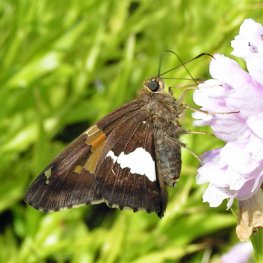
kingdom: Animalia
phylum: Arthropoda
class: Insecta
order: Lepidoptera
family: Hesperiidae
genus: Epargyreus
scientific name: Epargyreus clarus
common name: Silver-spotted Skipper
